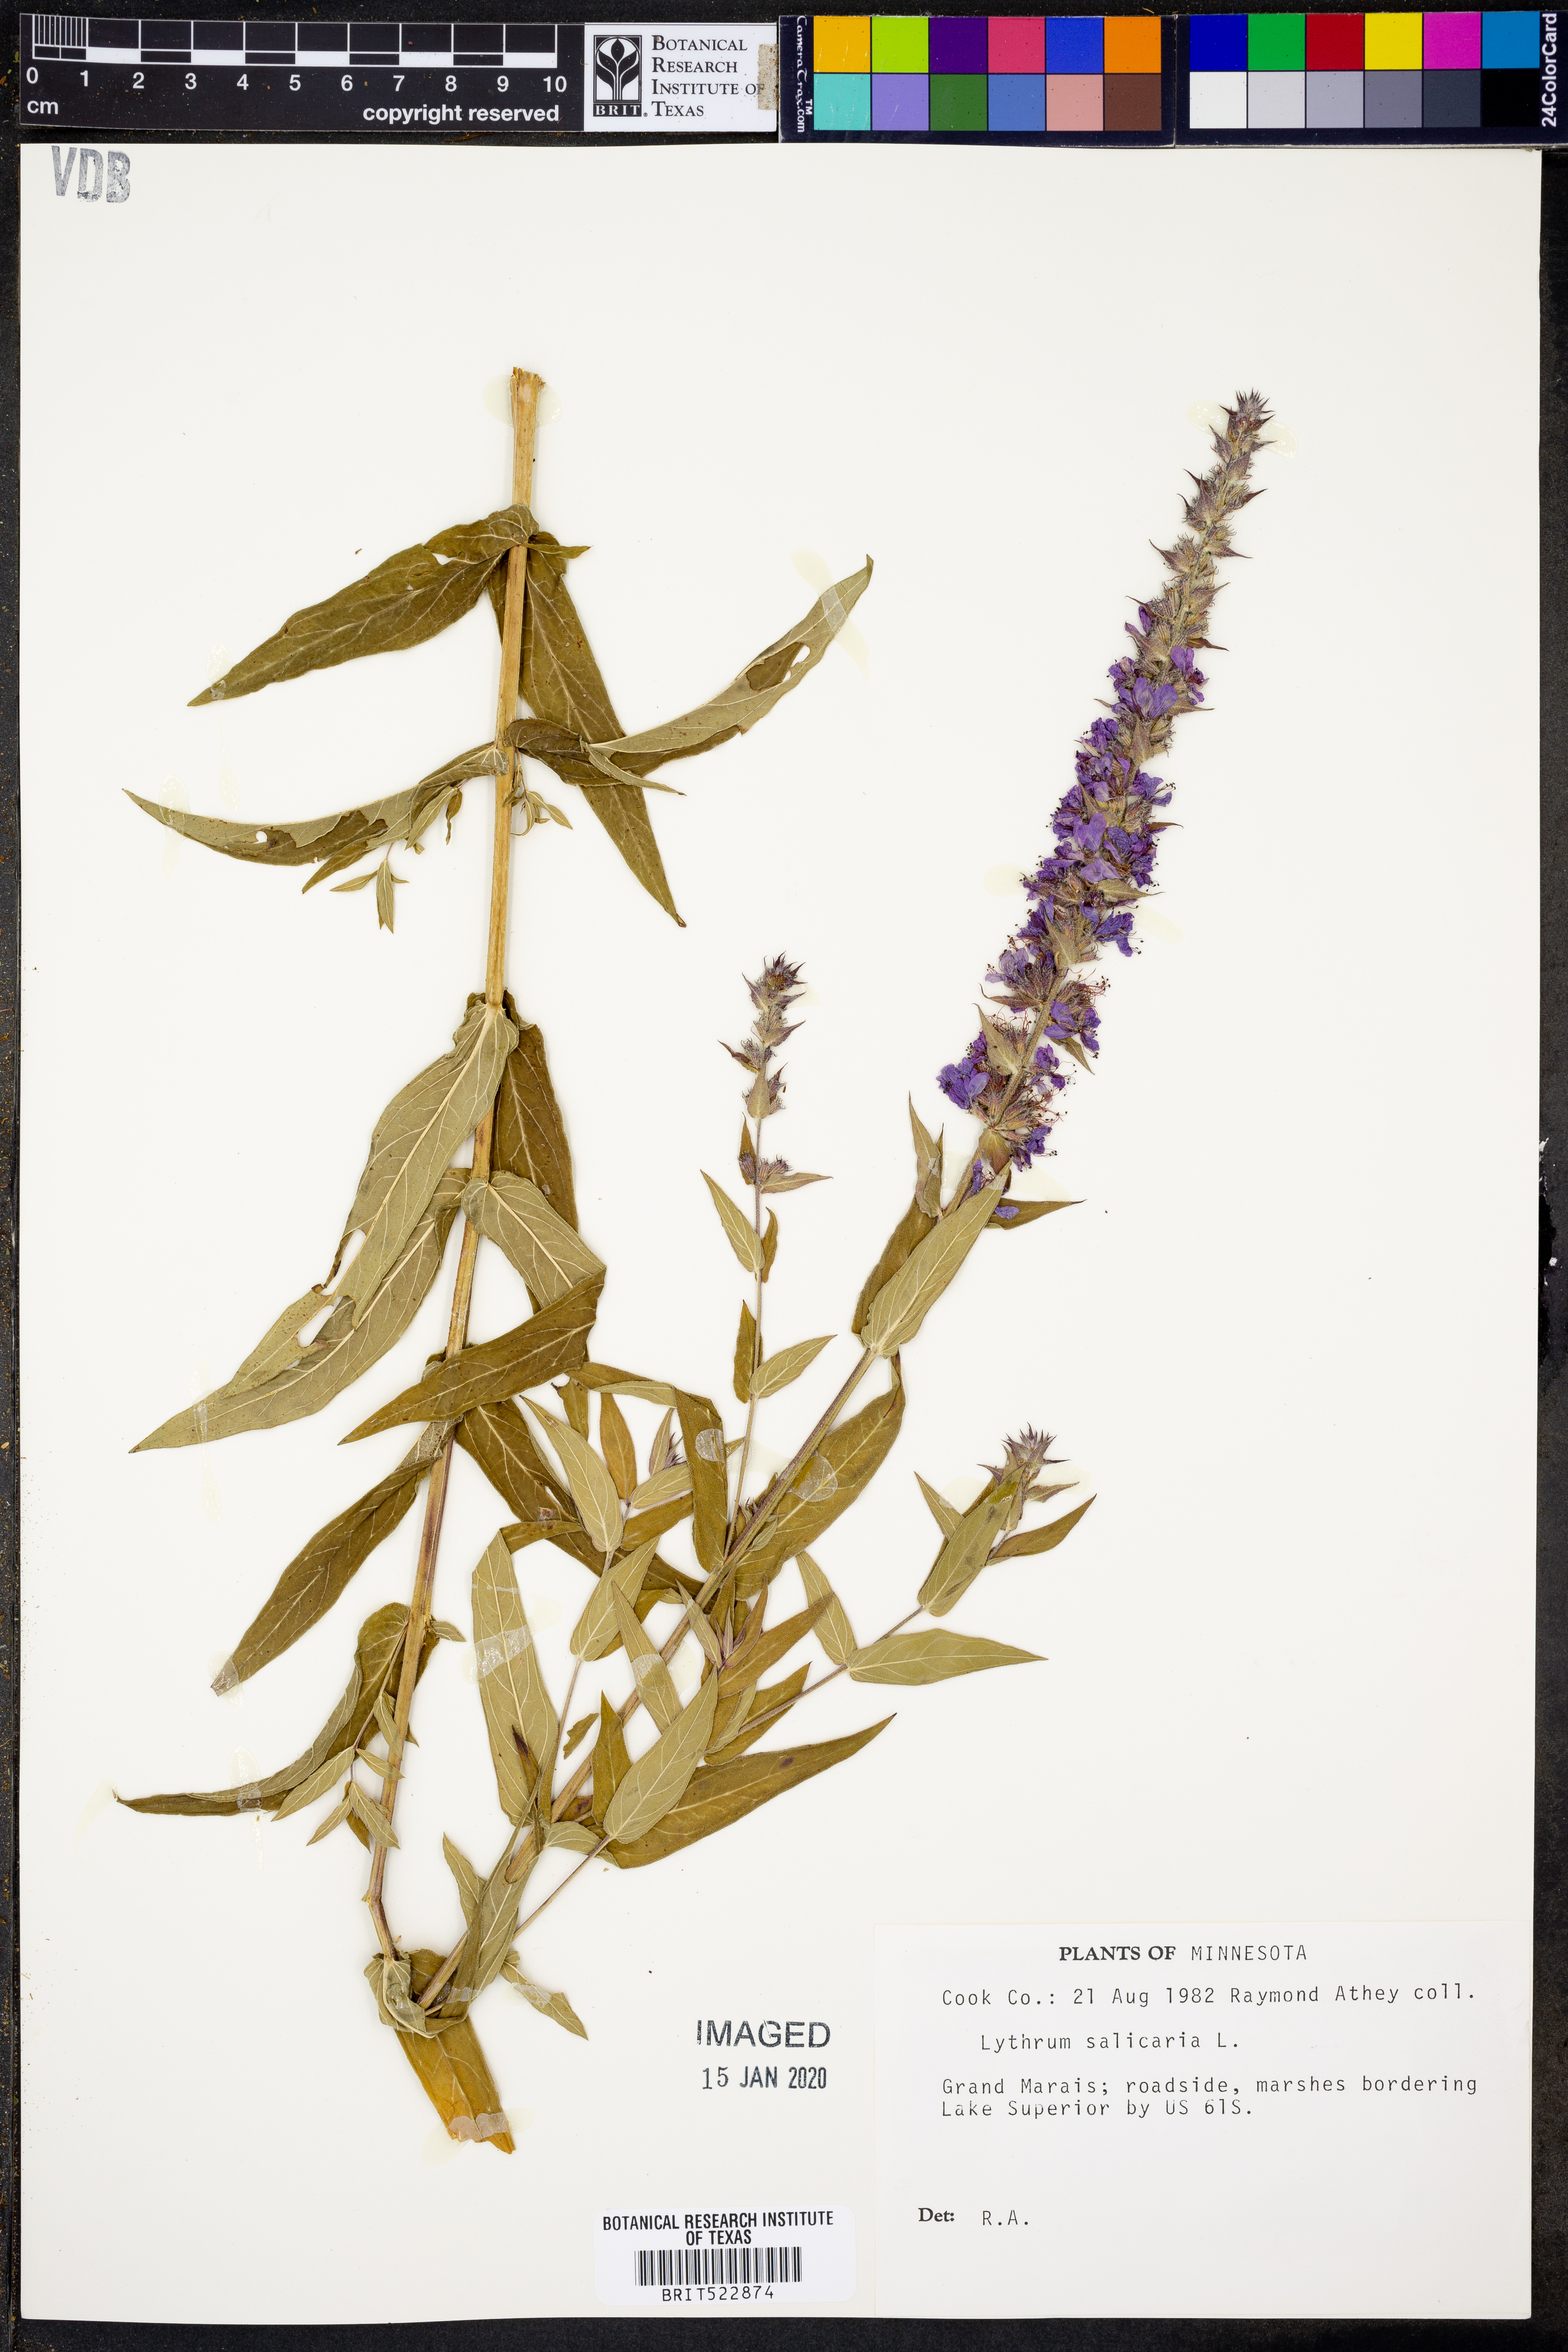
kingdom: Plantae
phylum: Tracheophyta
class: Magnoliopsida
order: Myrtales
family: Lythraceae
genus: Lythrum
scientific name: Lythrum salicaria
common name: Purple loosestrife
